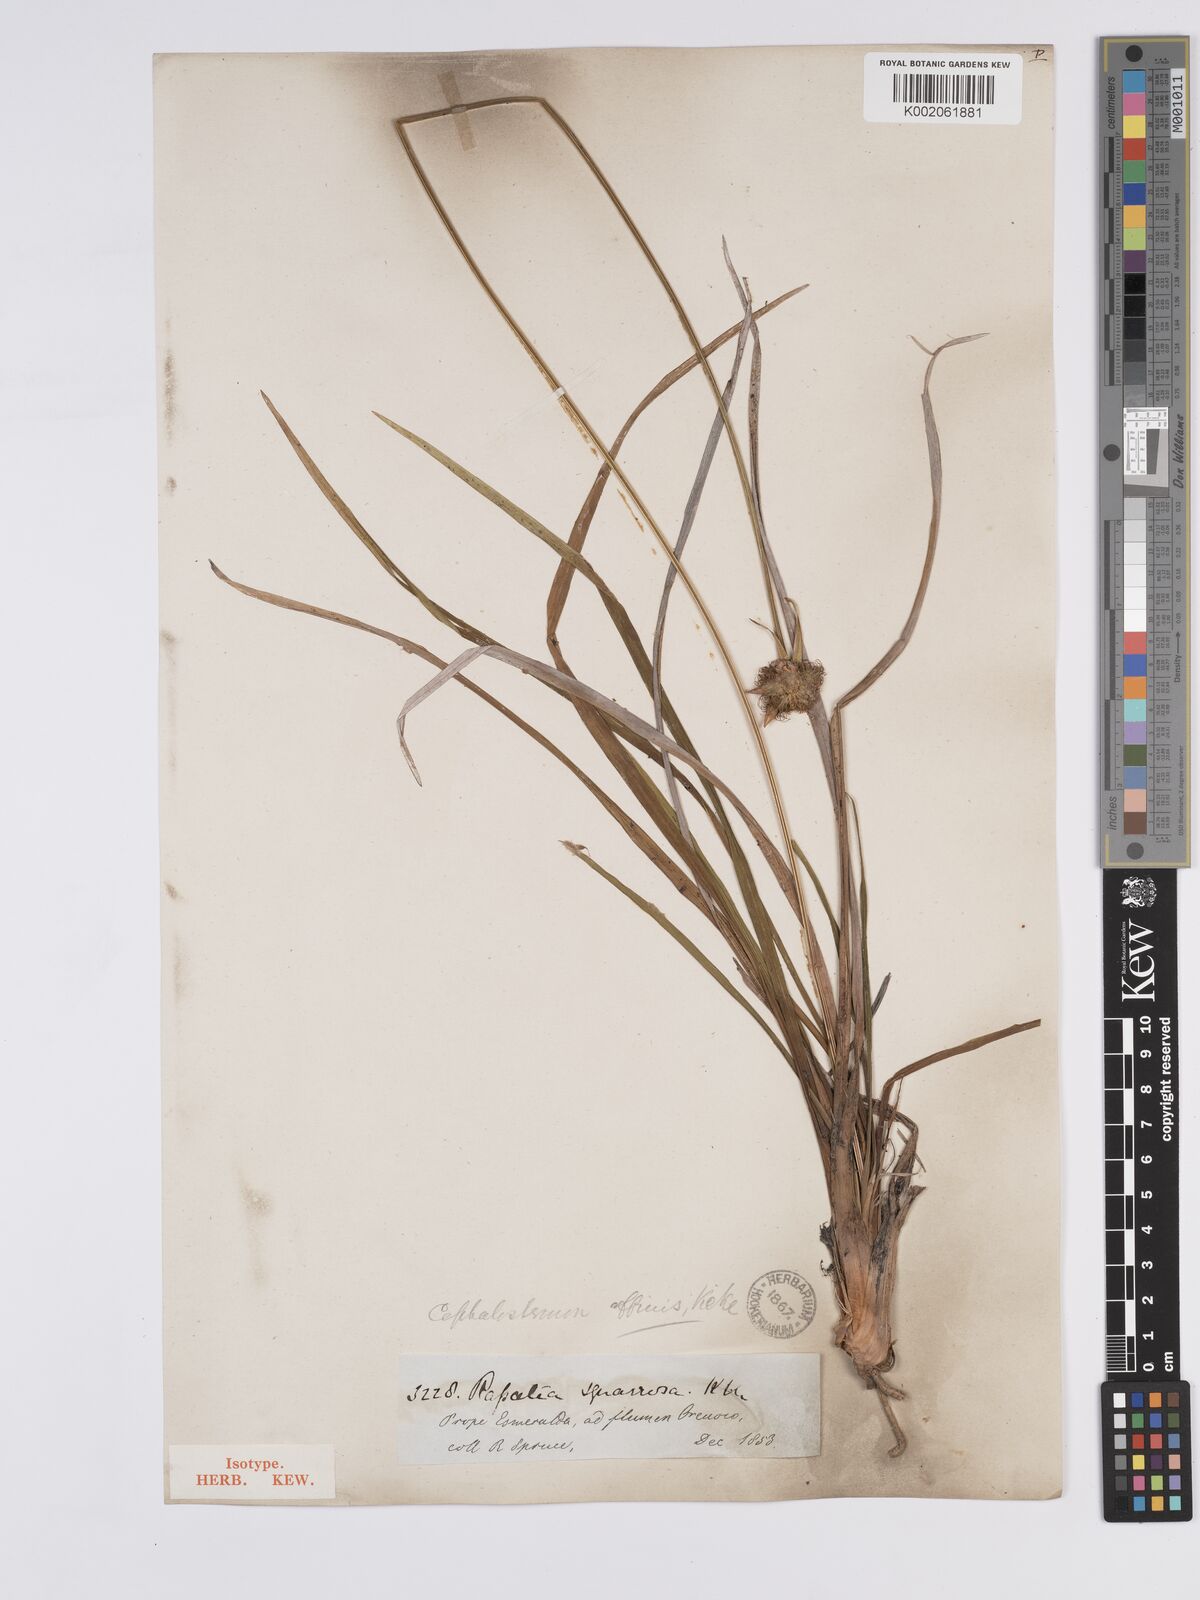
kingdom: Plantae
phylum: Tracheophyta
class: Liliopsida
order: Poales
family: Rapateaceae
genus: Cephalostemon
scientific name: Cephalostemon affinis
